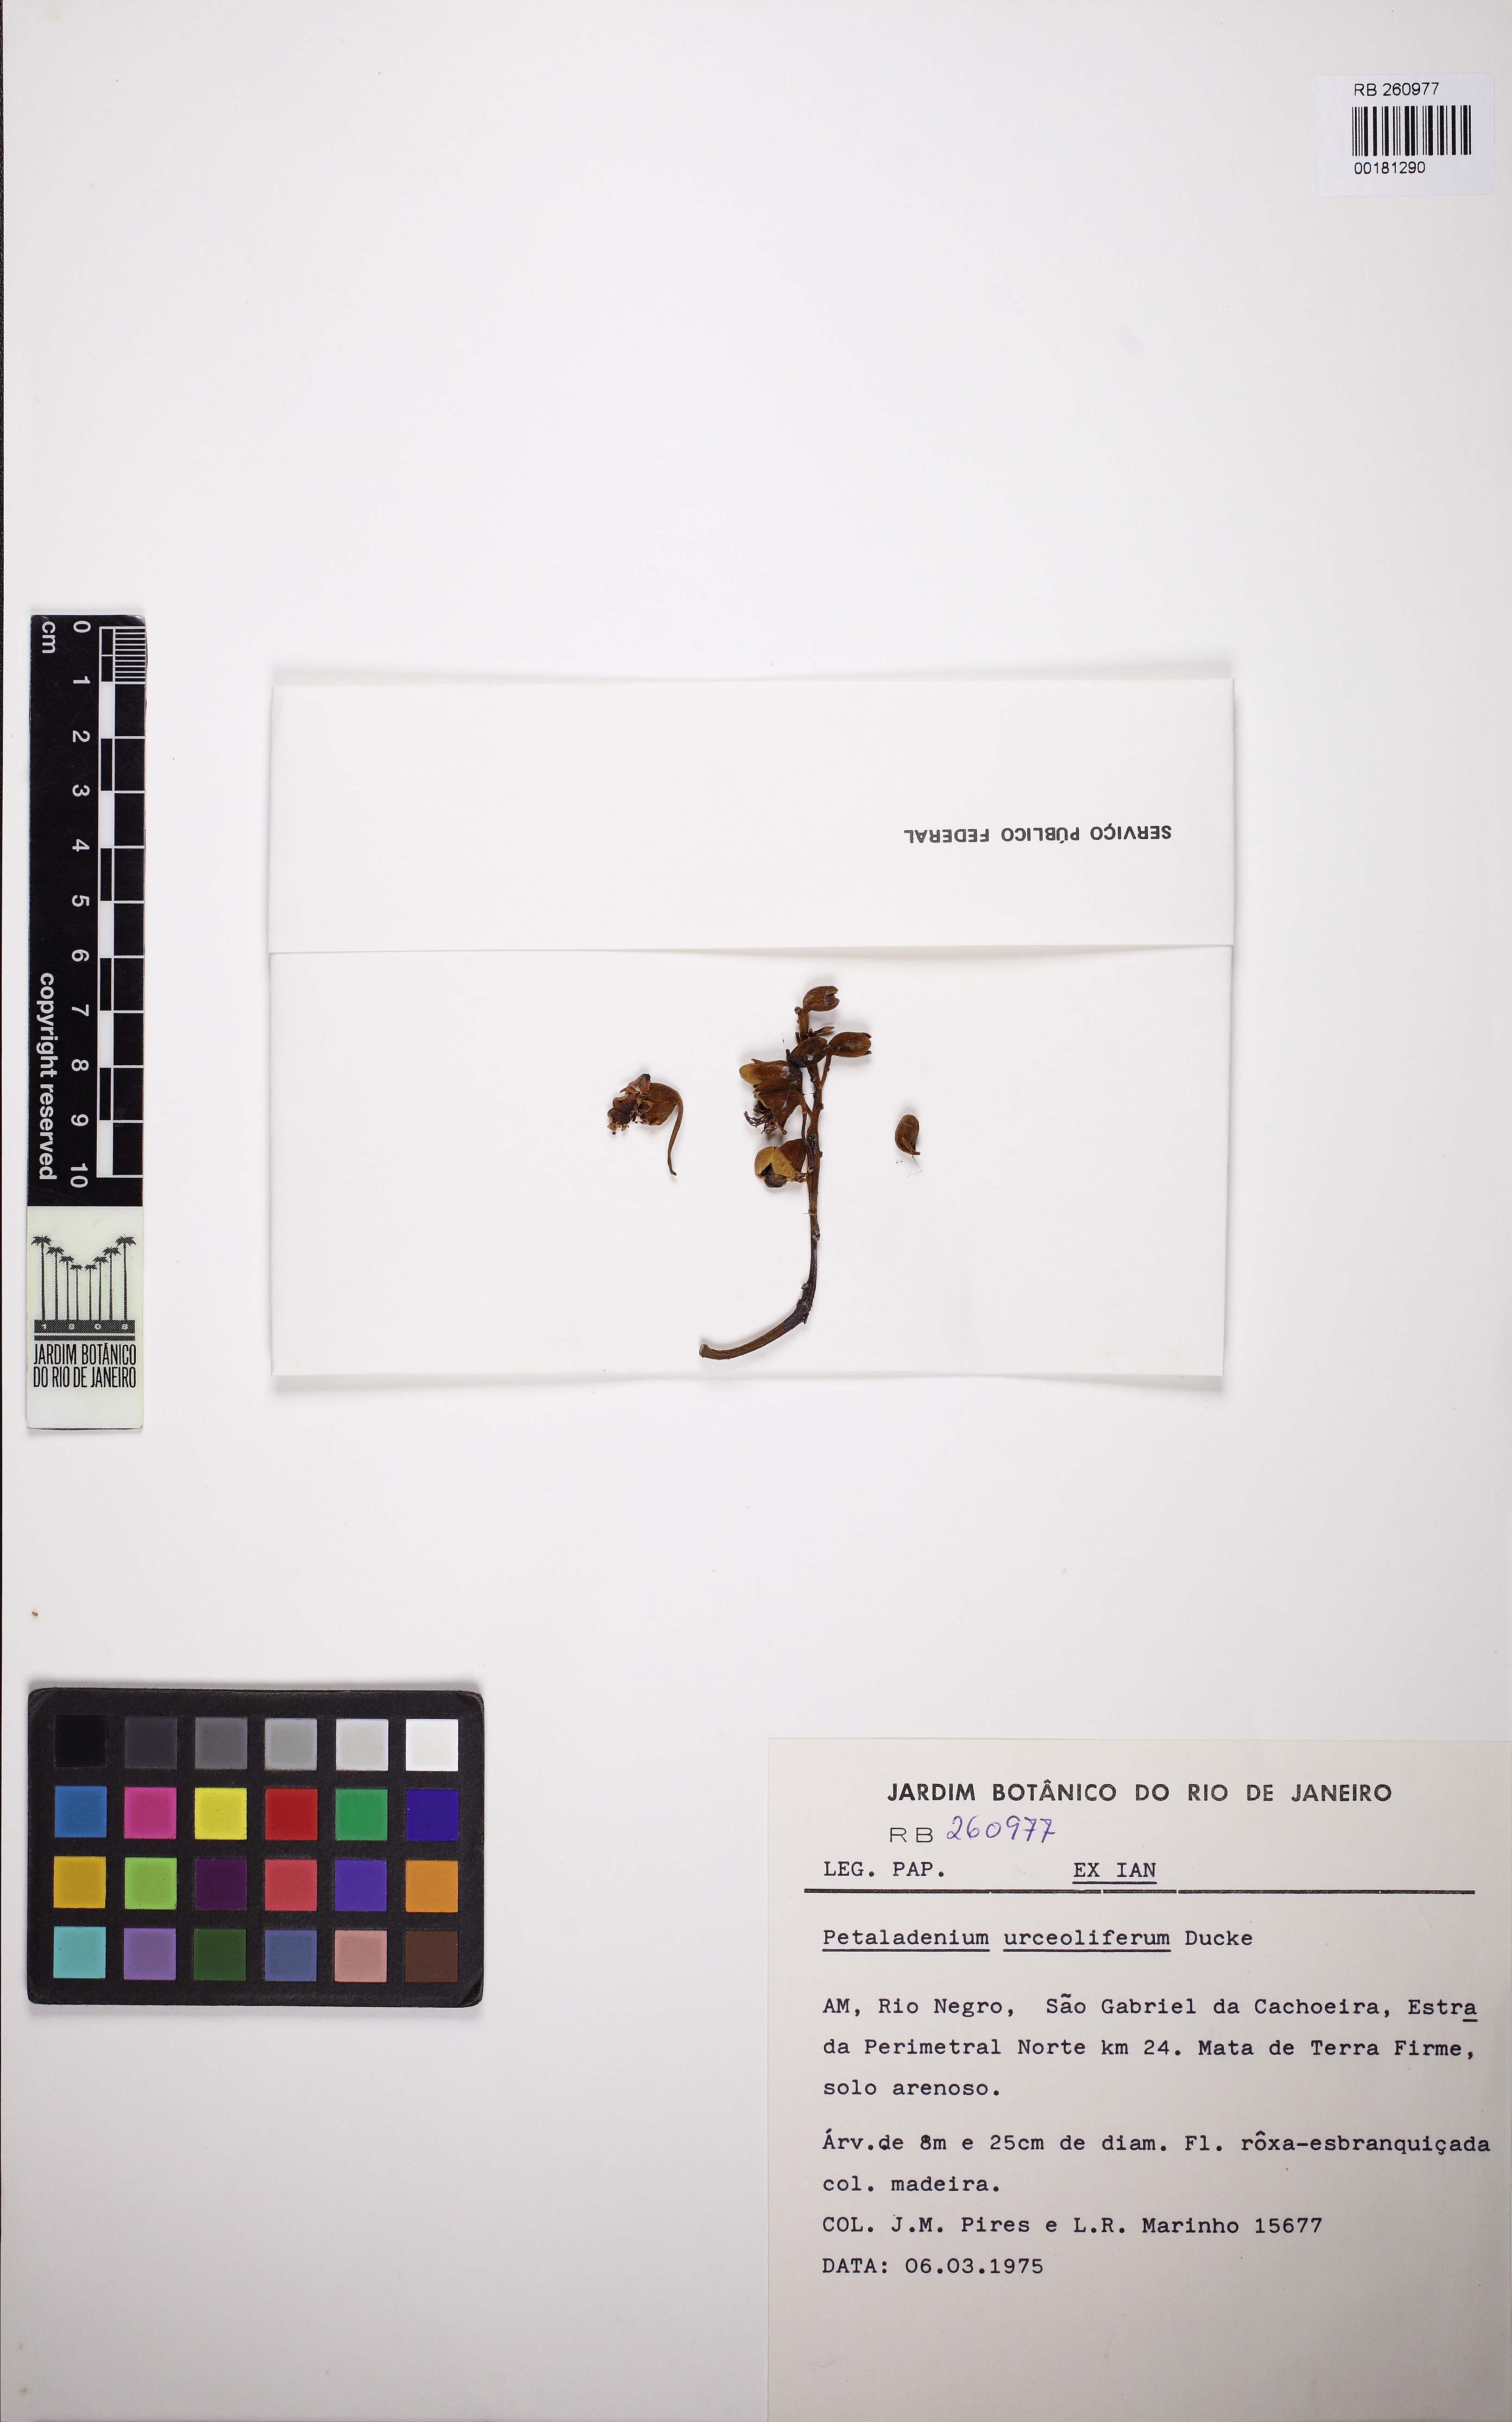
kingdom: Plantae
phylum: Tracheophyta
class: Magnoliopsida
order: Fabales
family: Fabaceae
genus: Petaladenium
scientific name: Petaladenium urceoliferum
